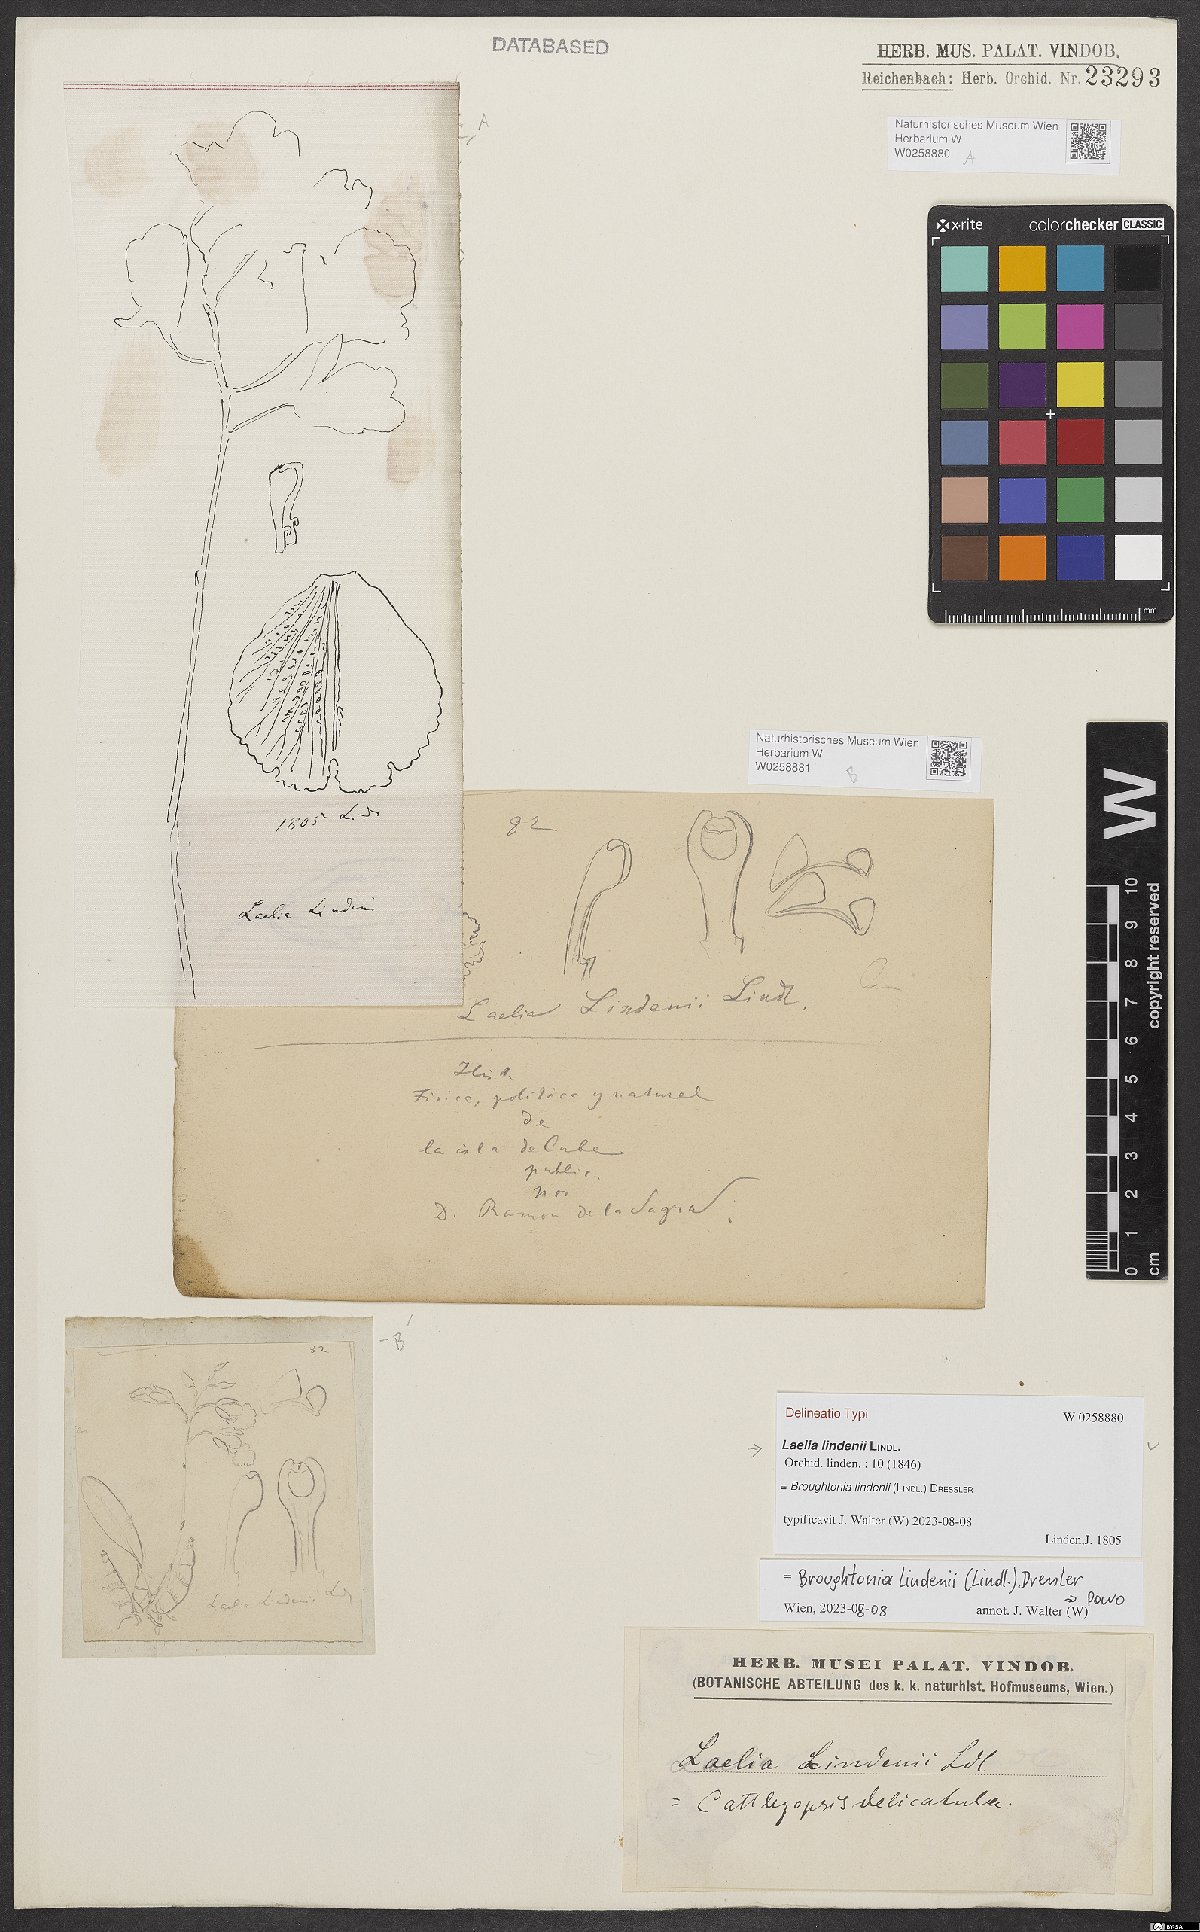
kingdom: Plantae
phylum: Tracheophyta
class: Liliopsida
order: Asparagales
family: Orchidaceae
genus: Broughtonia
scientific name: Broughtonia lindenii
